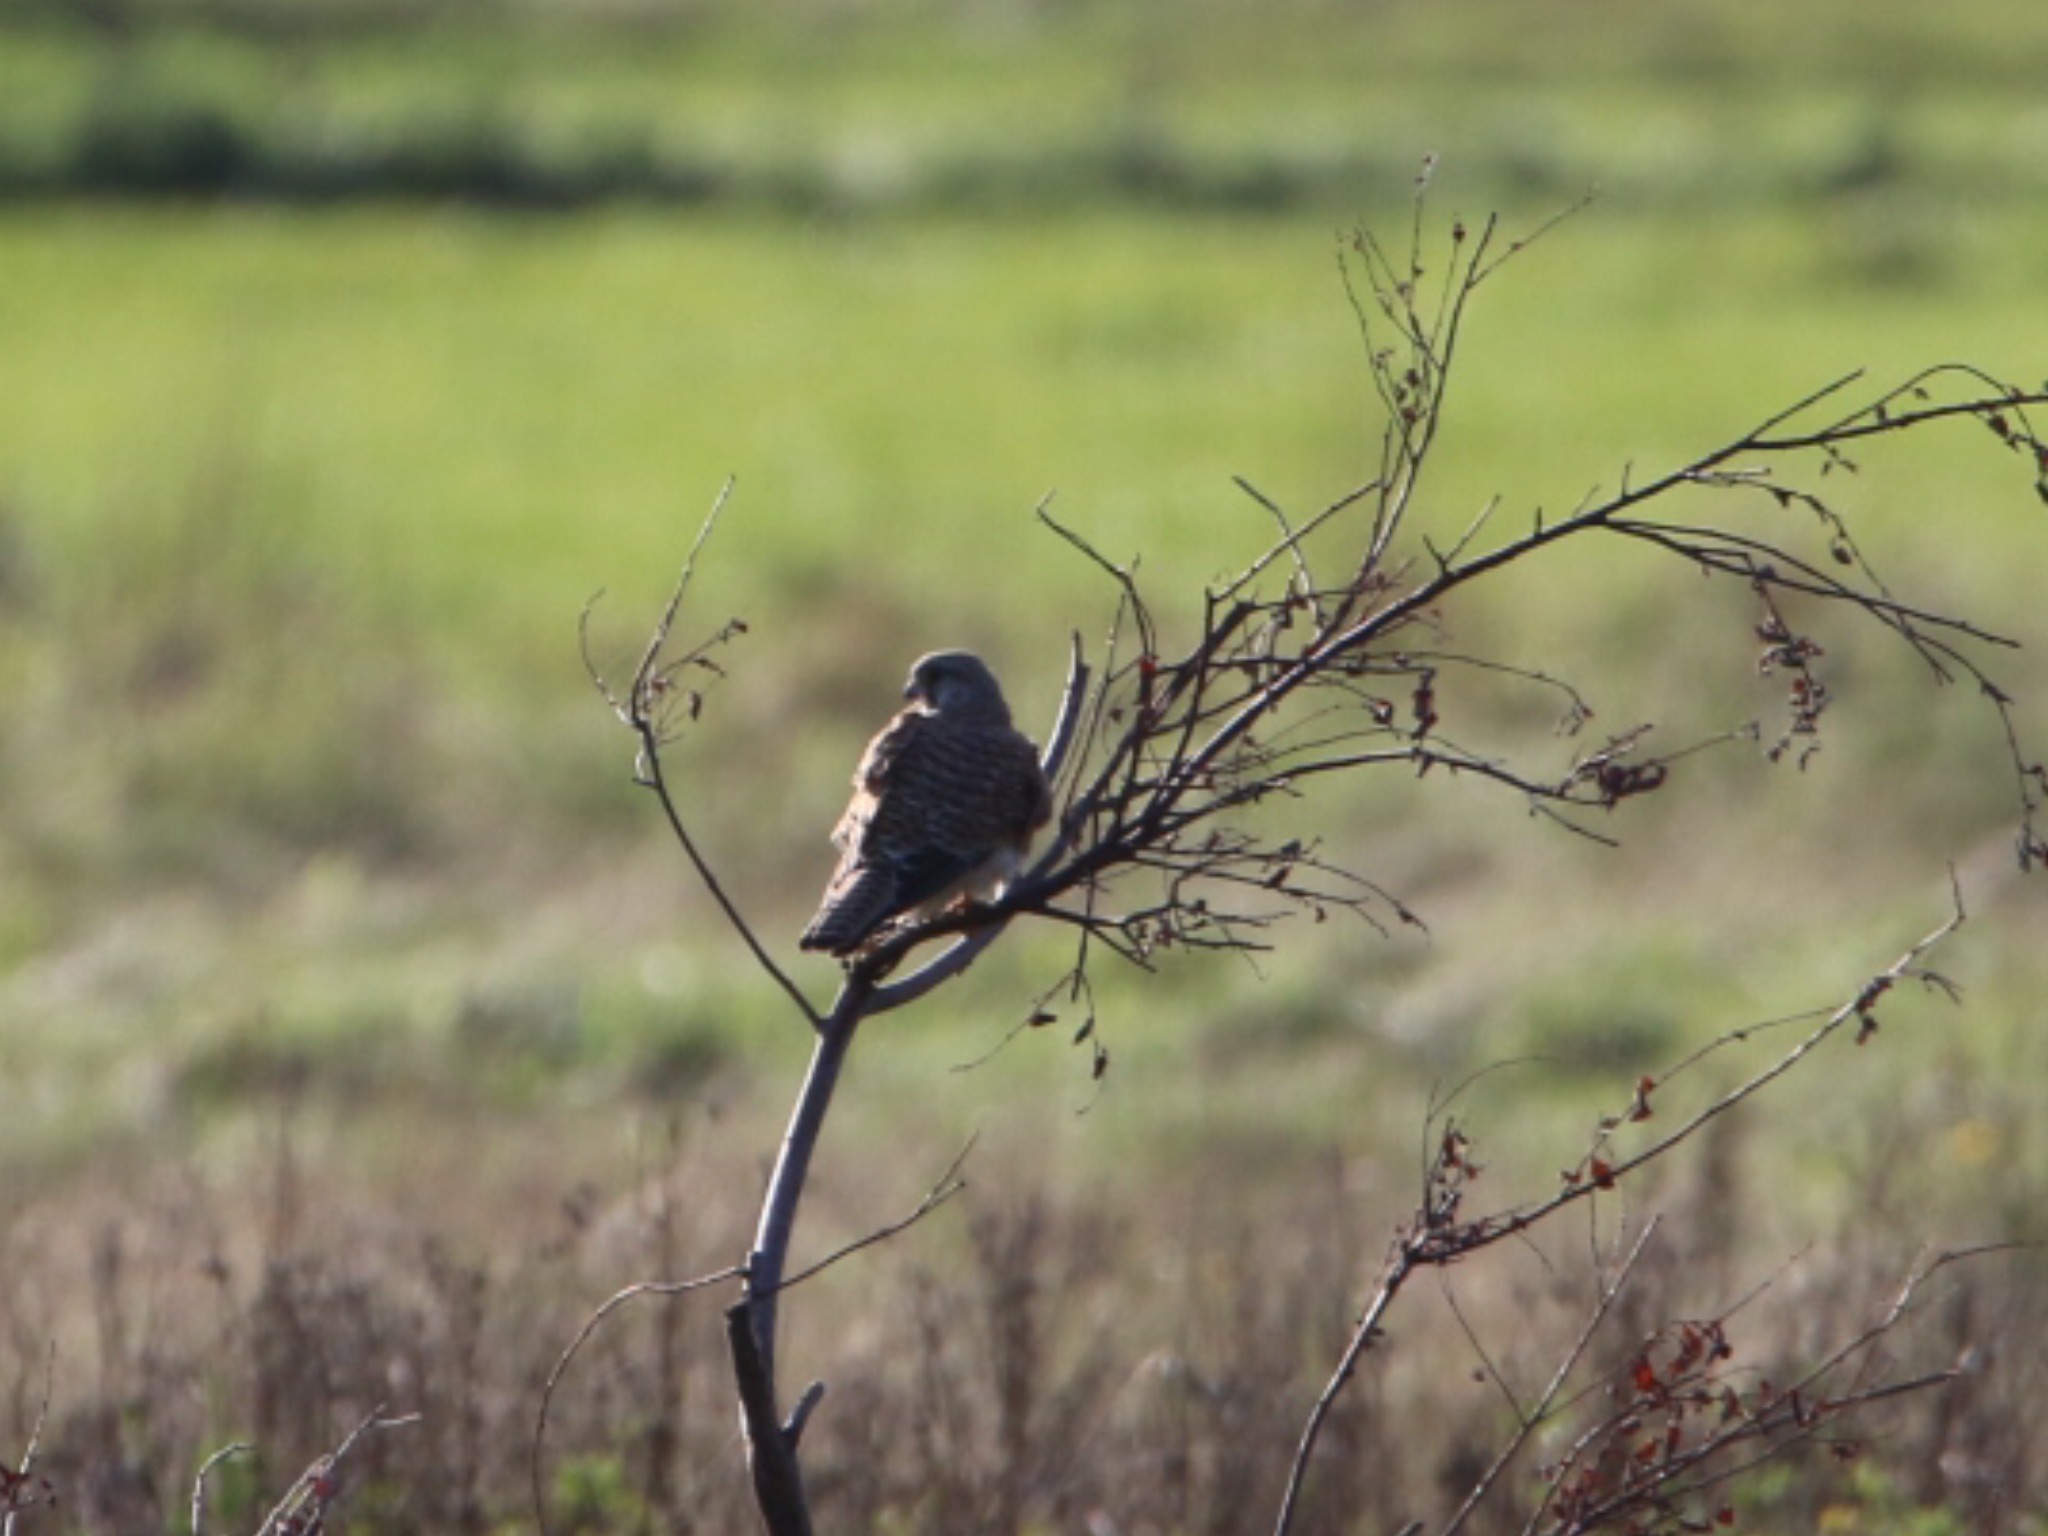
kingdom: Animalia
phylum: Chordata
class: Aves
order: Falconiformes
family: Falconidae
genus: Falco
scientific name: Falco tinnunculus
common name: Tårnfalk
